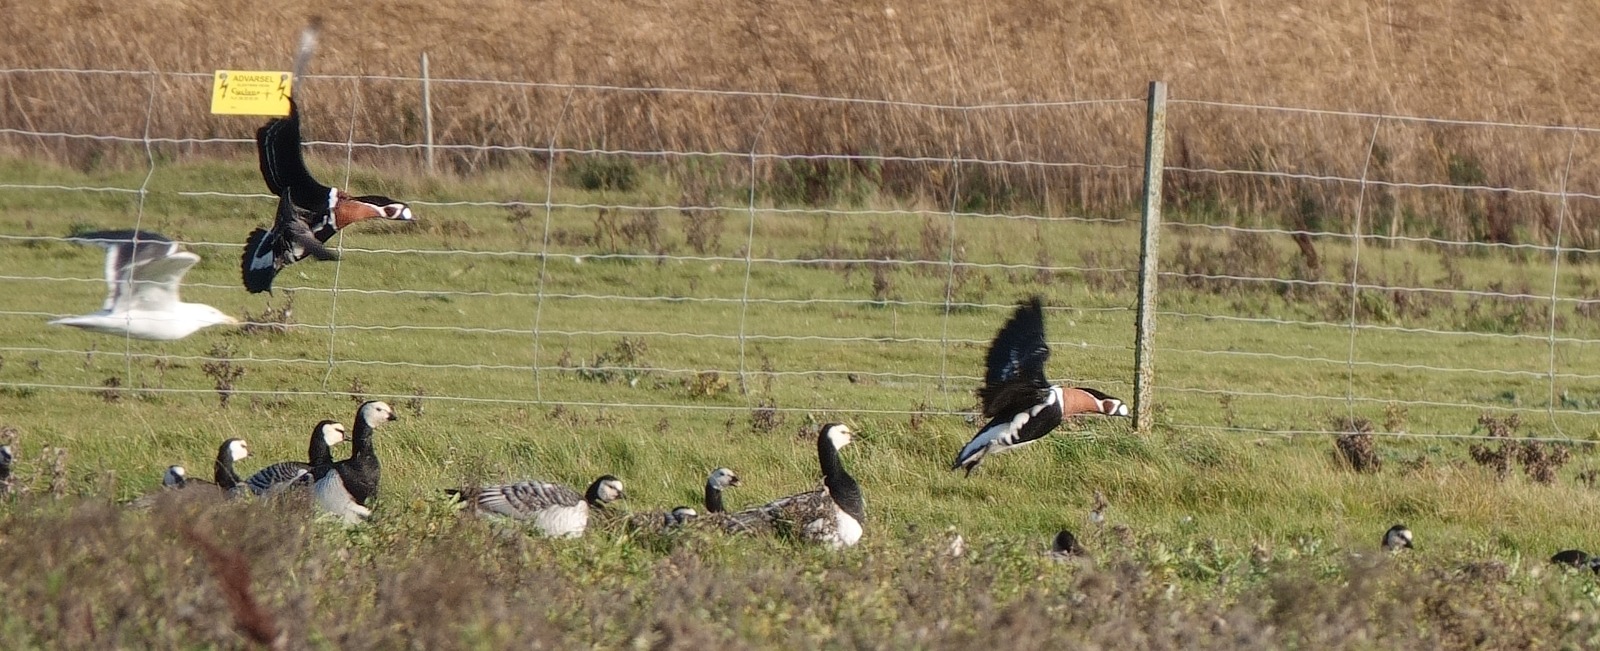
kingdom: Animalia
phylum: Chordata
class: Aves
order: Anseriformes
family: Anatidae
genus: Branta
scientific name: Branta ruficollis
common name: Rødhalset gås
